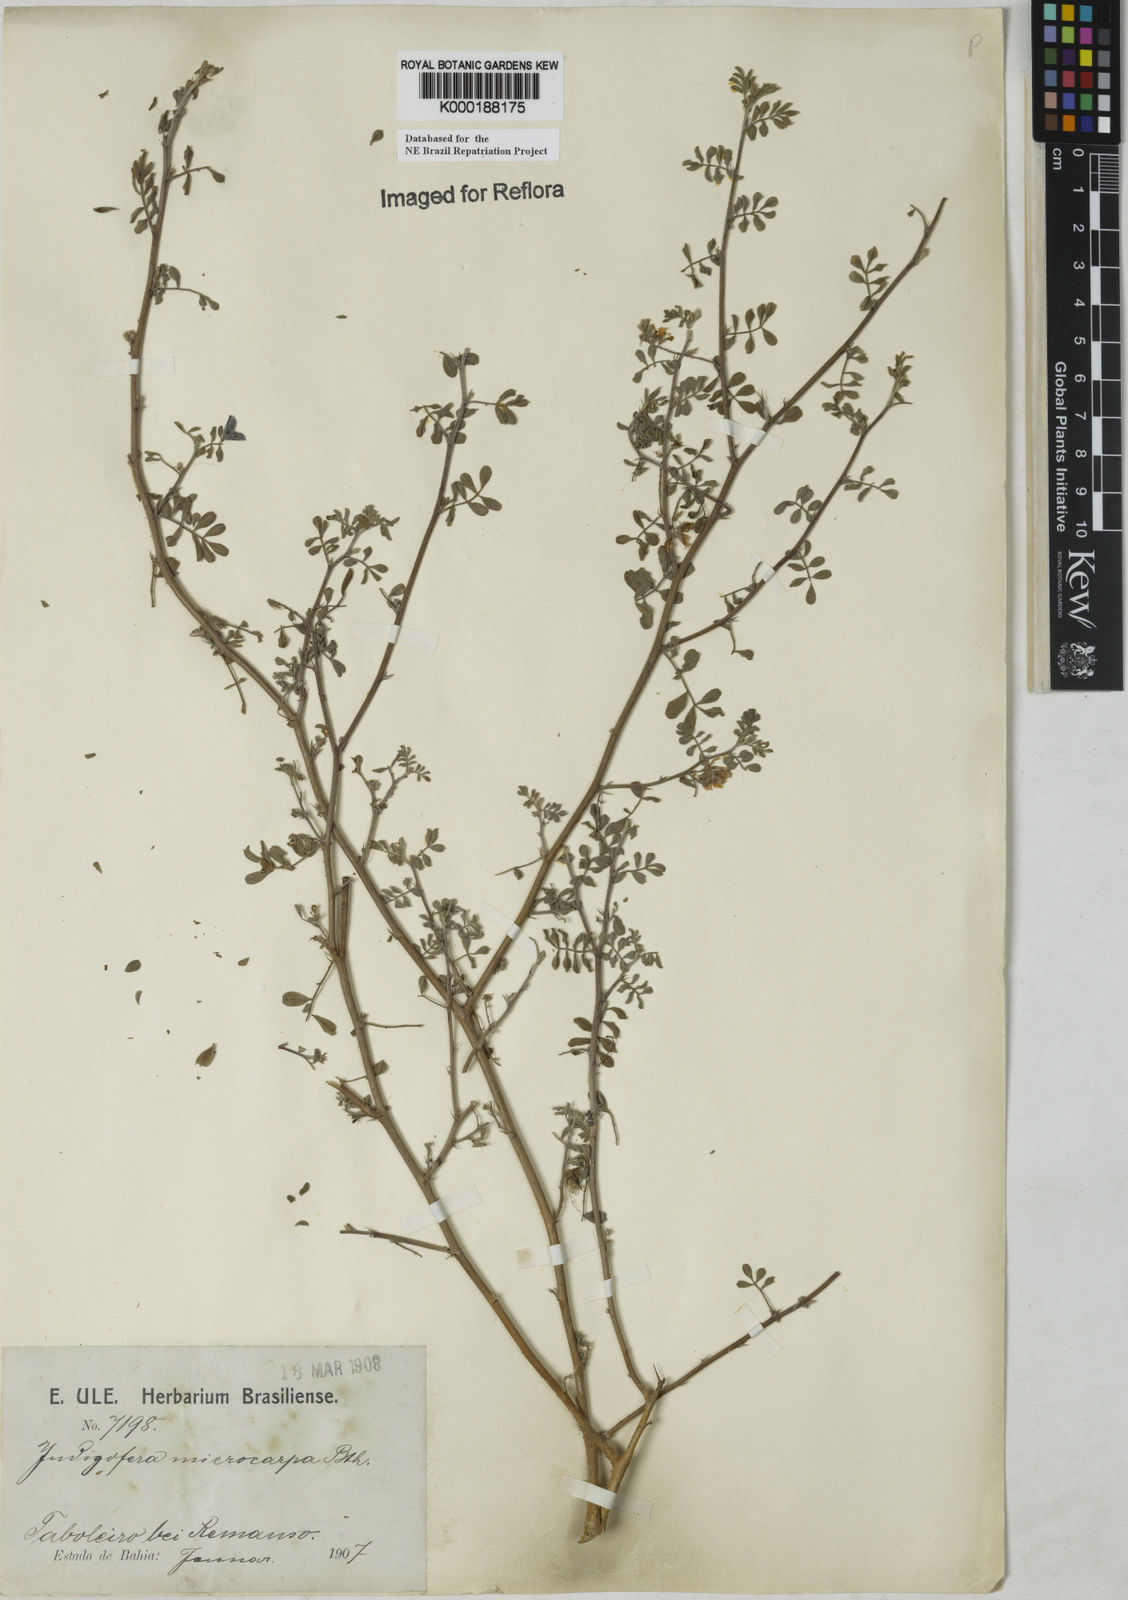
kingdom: Plantae
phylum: Tracheophyta
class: Magnoliopsida
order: Fabales
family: Fabaceae
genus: Indigofera
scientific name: Indigofera microcarpa
